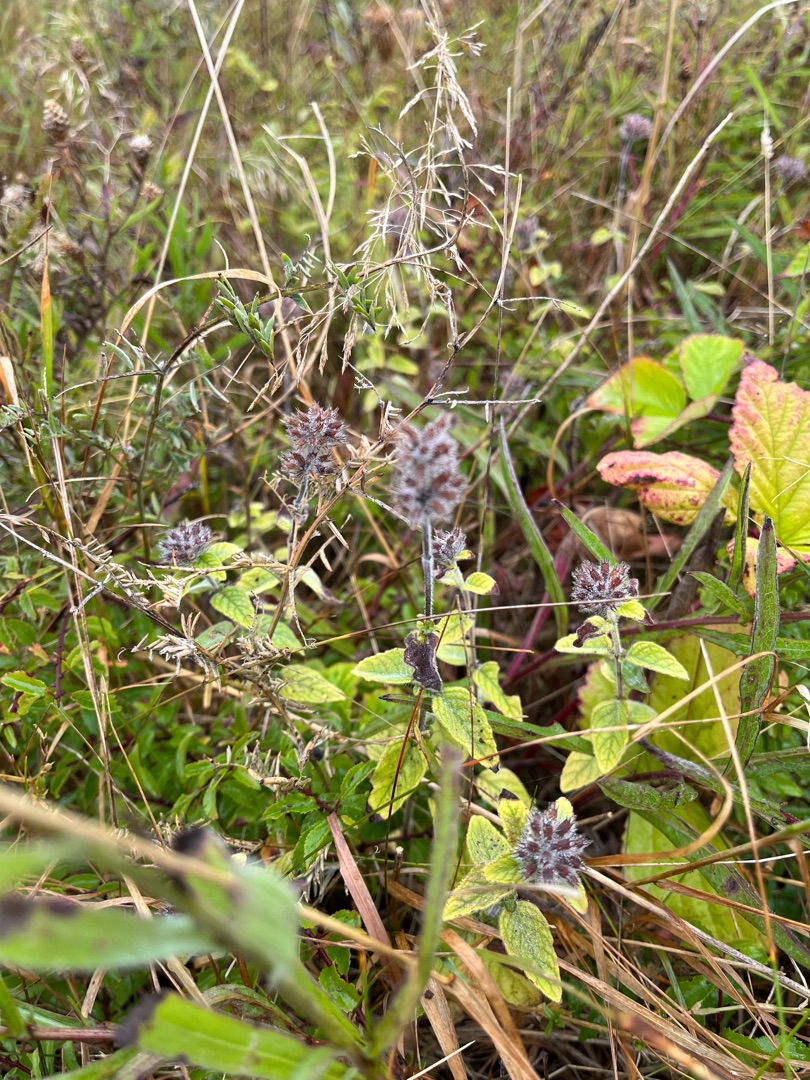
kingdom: Plantae
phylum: Tracheophyta
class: Magnoliopsida
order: Lamiales
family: Lamiaceae
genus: Clinopodium
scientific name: Clinopodium vulgare
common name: Kransbørste
